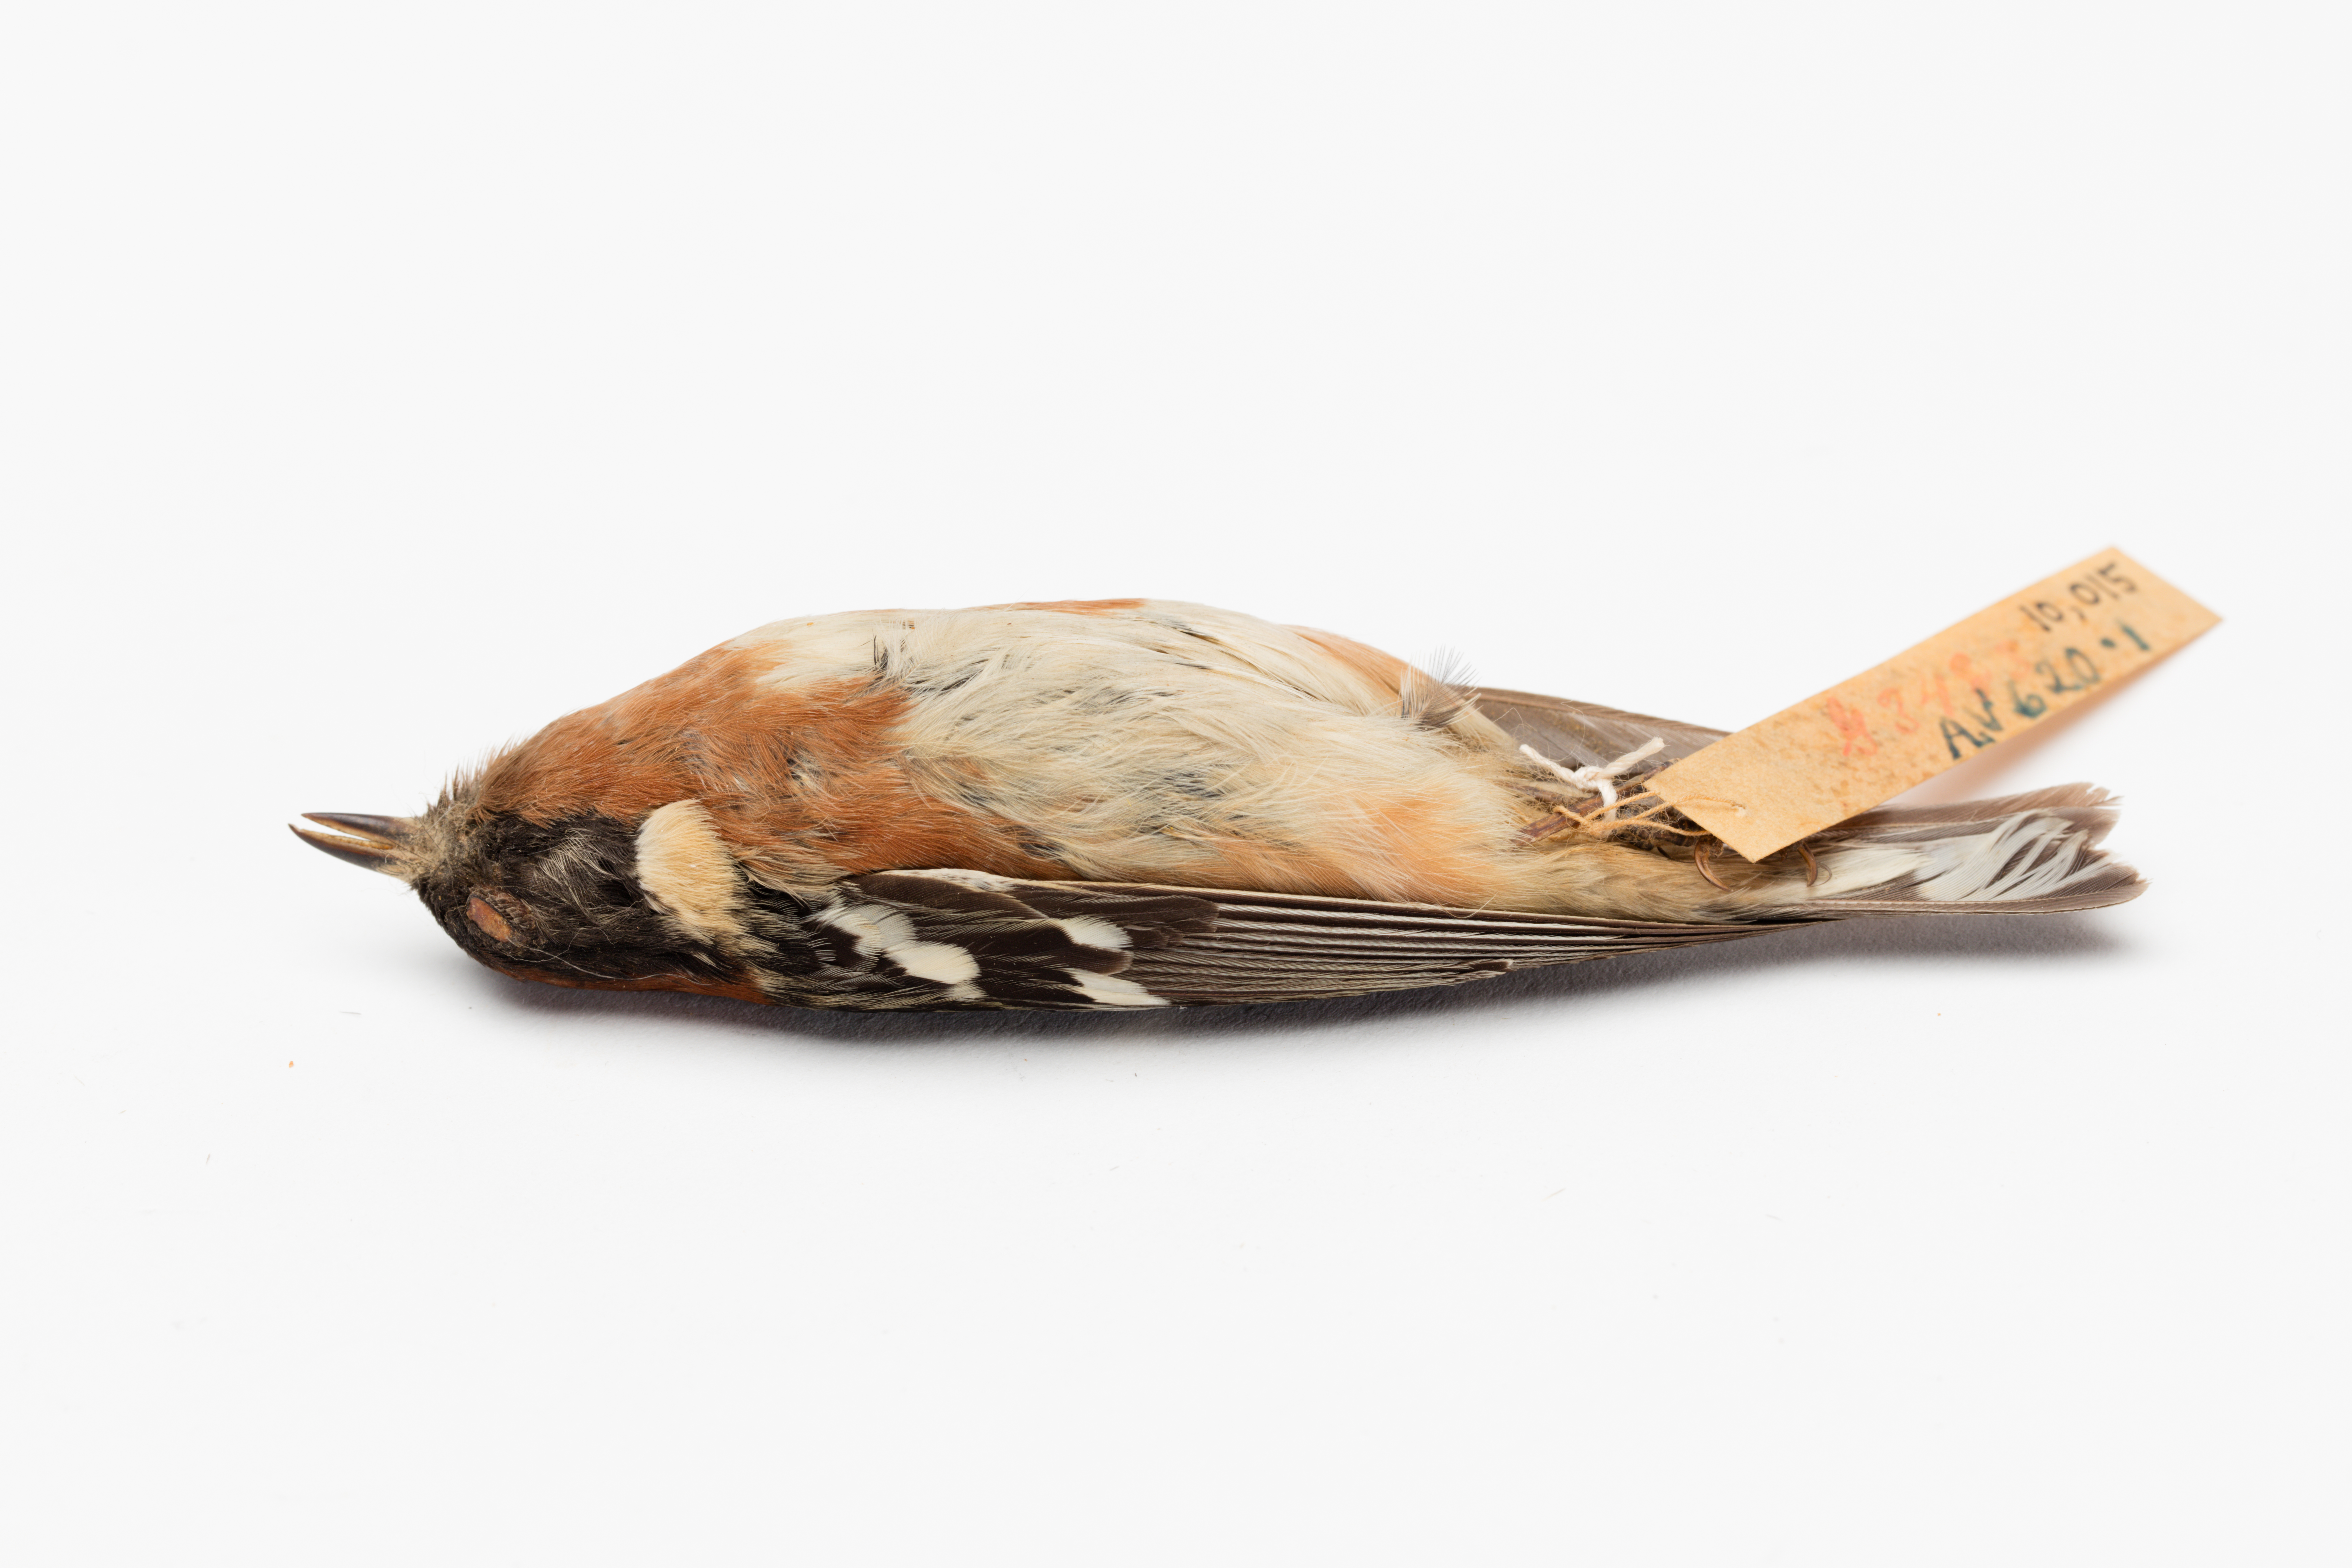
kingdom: Animalia
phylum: Chordata
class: Aves
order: Passeriformes
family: Parulidae
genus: Setophaga
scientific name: Setophaga castanea
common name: Bay-breasted warbler
